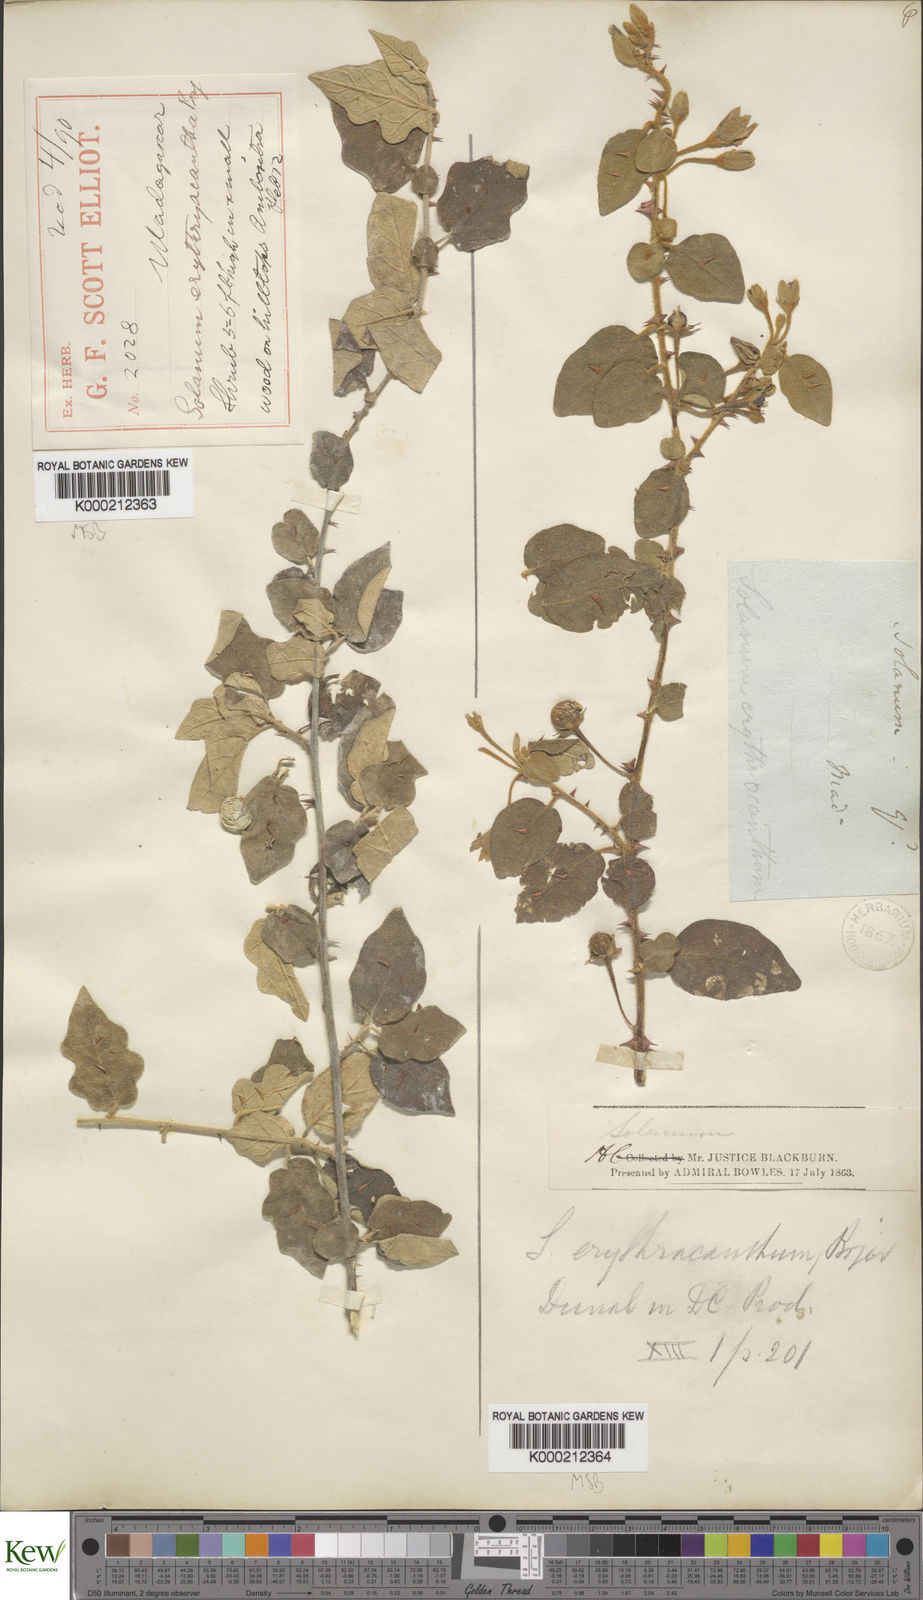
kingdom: Plantae
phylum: Tracheophyta
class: Magnoliopsida
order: Solanales
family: Solanaceae
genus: Solanum
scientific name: Solanum erythracanthum
